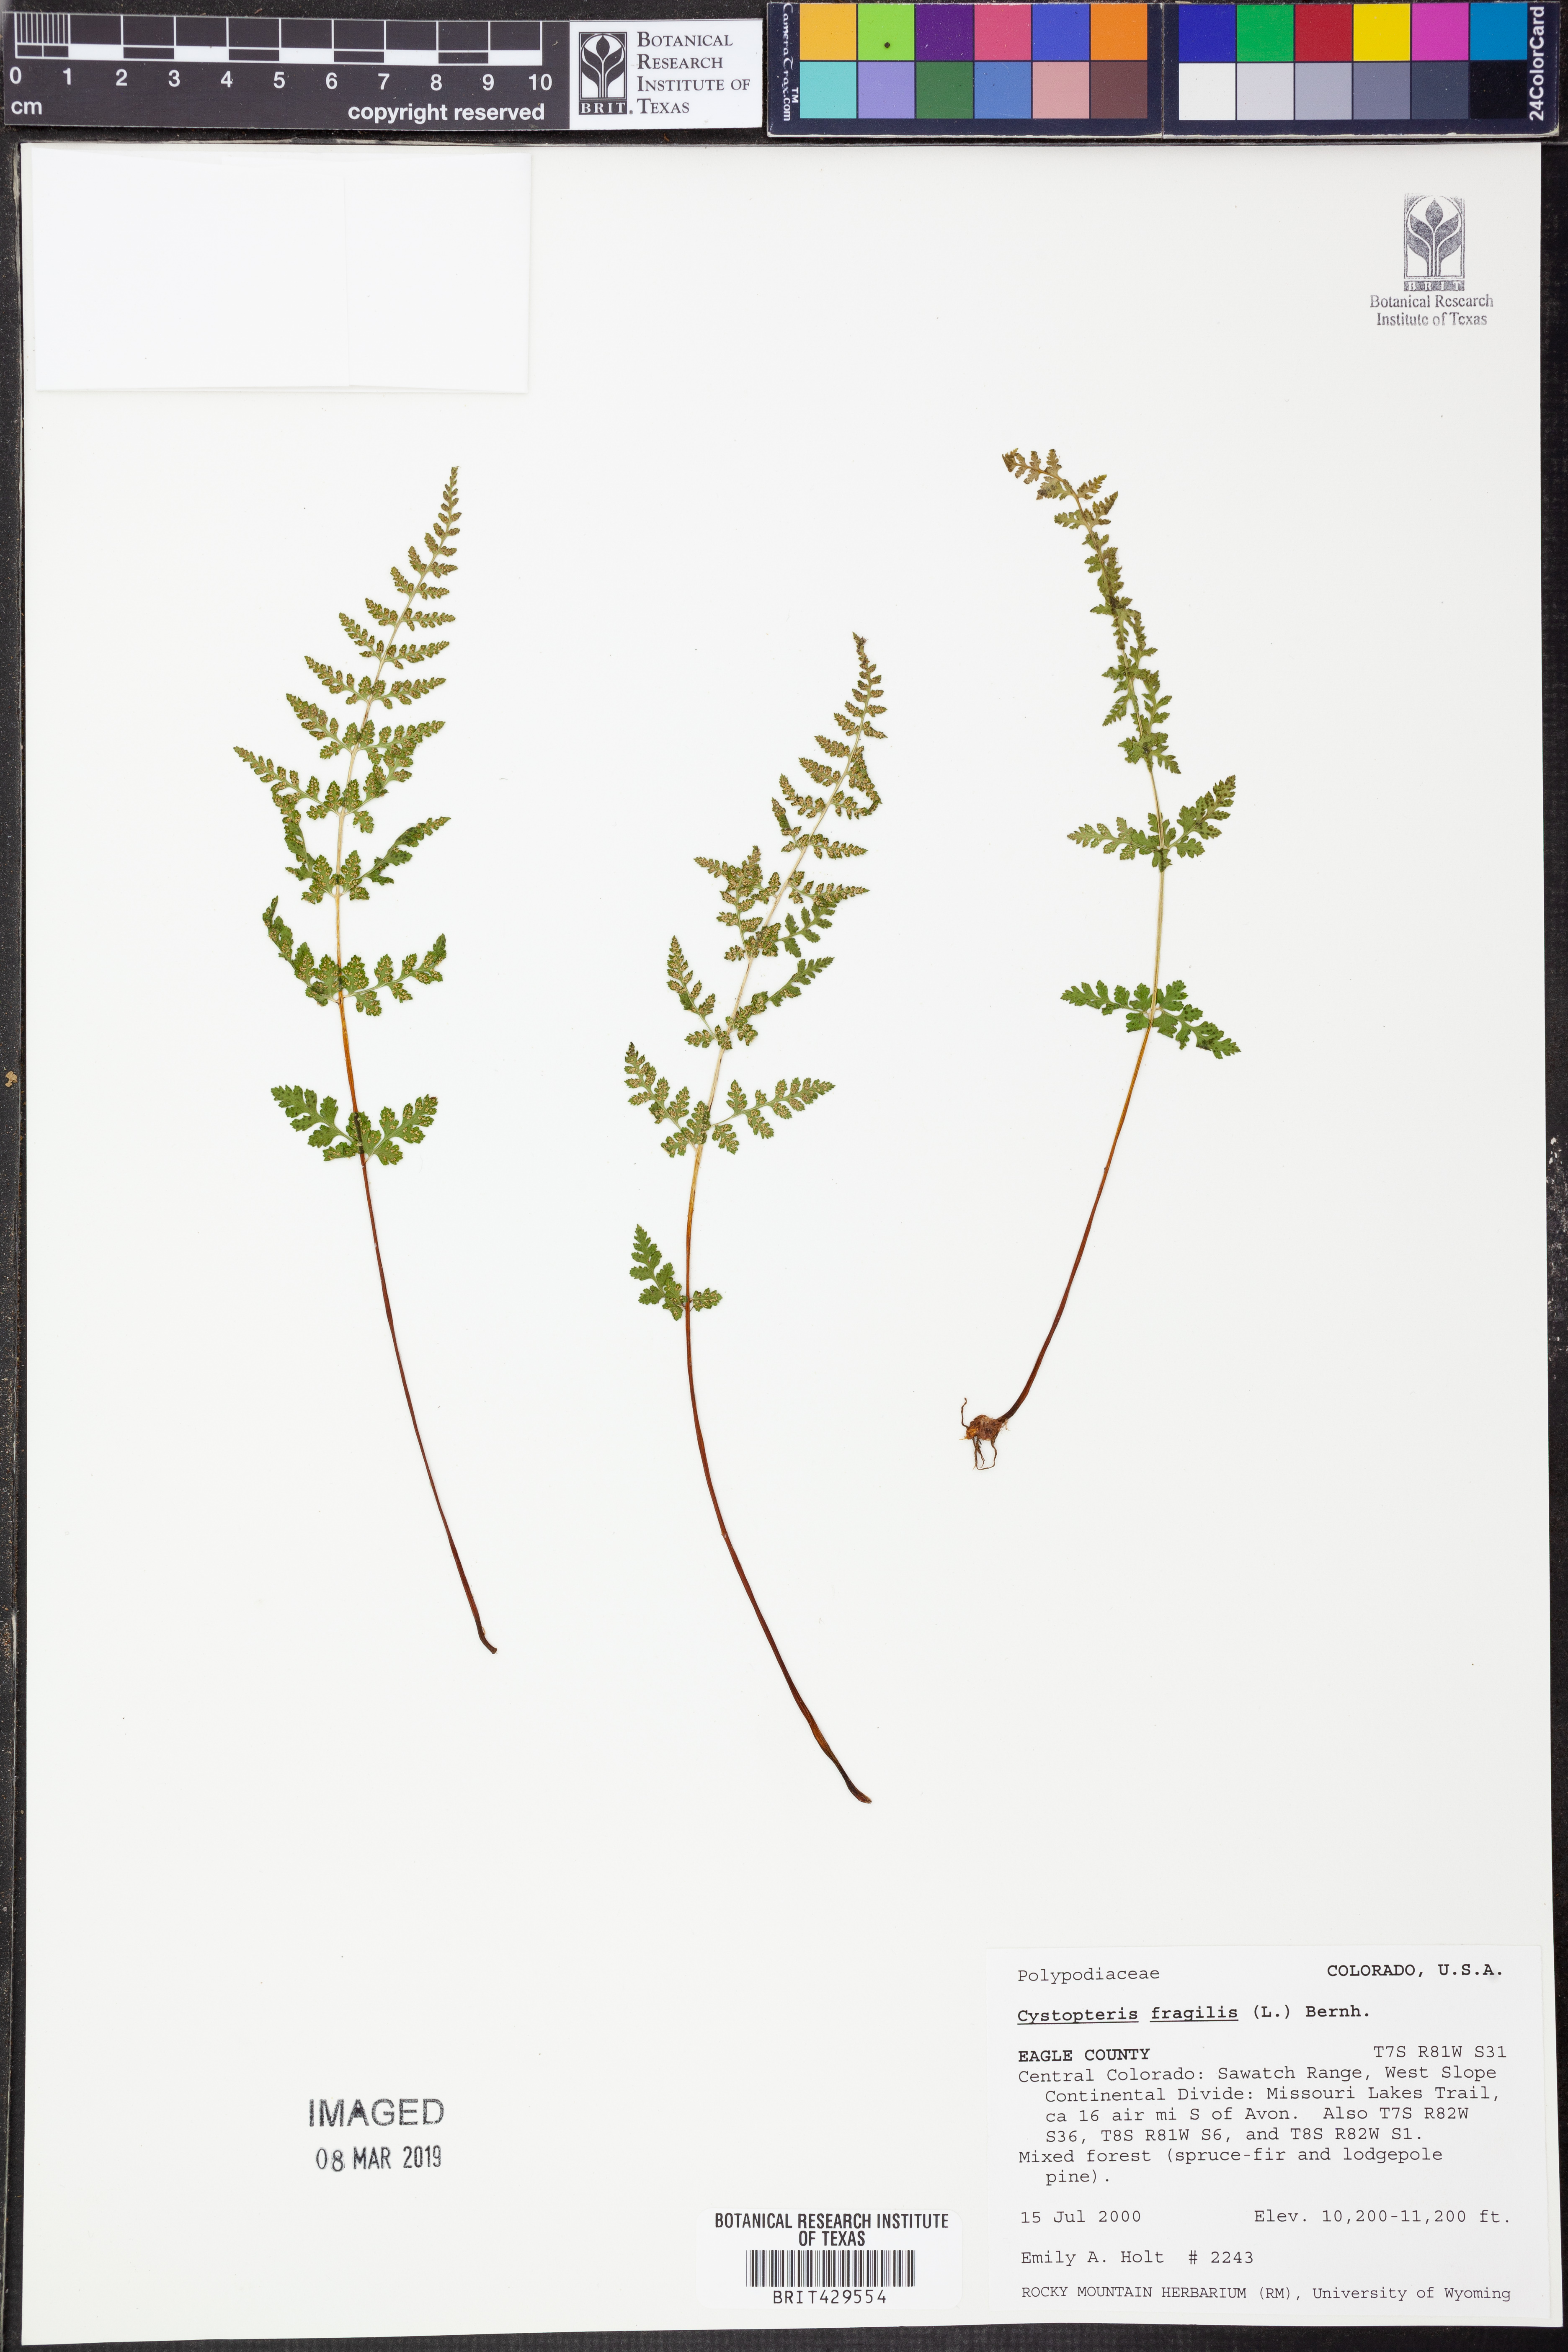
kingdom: Plantae
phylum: Tracheophyta
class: Polypodiopsida
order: Polypodiales
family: Cystopteridaceae
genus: Cystopteris
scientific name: Cystopteris fragilis
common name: Brittle bladder fern
